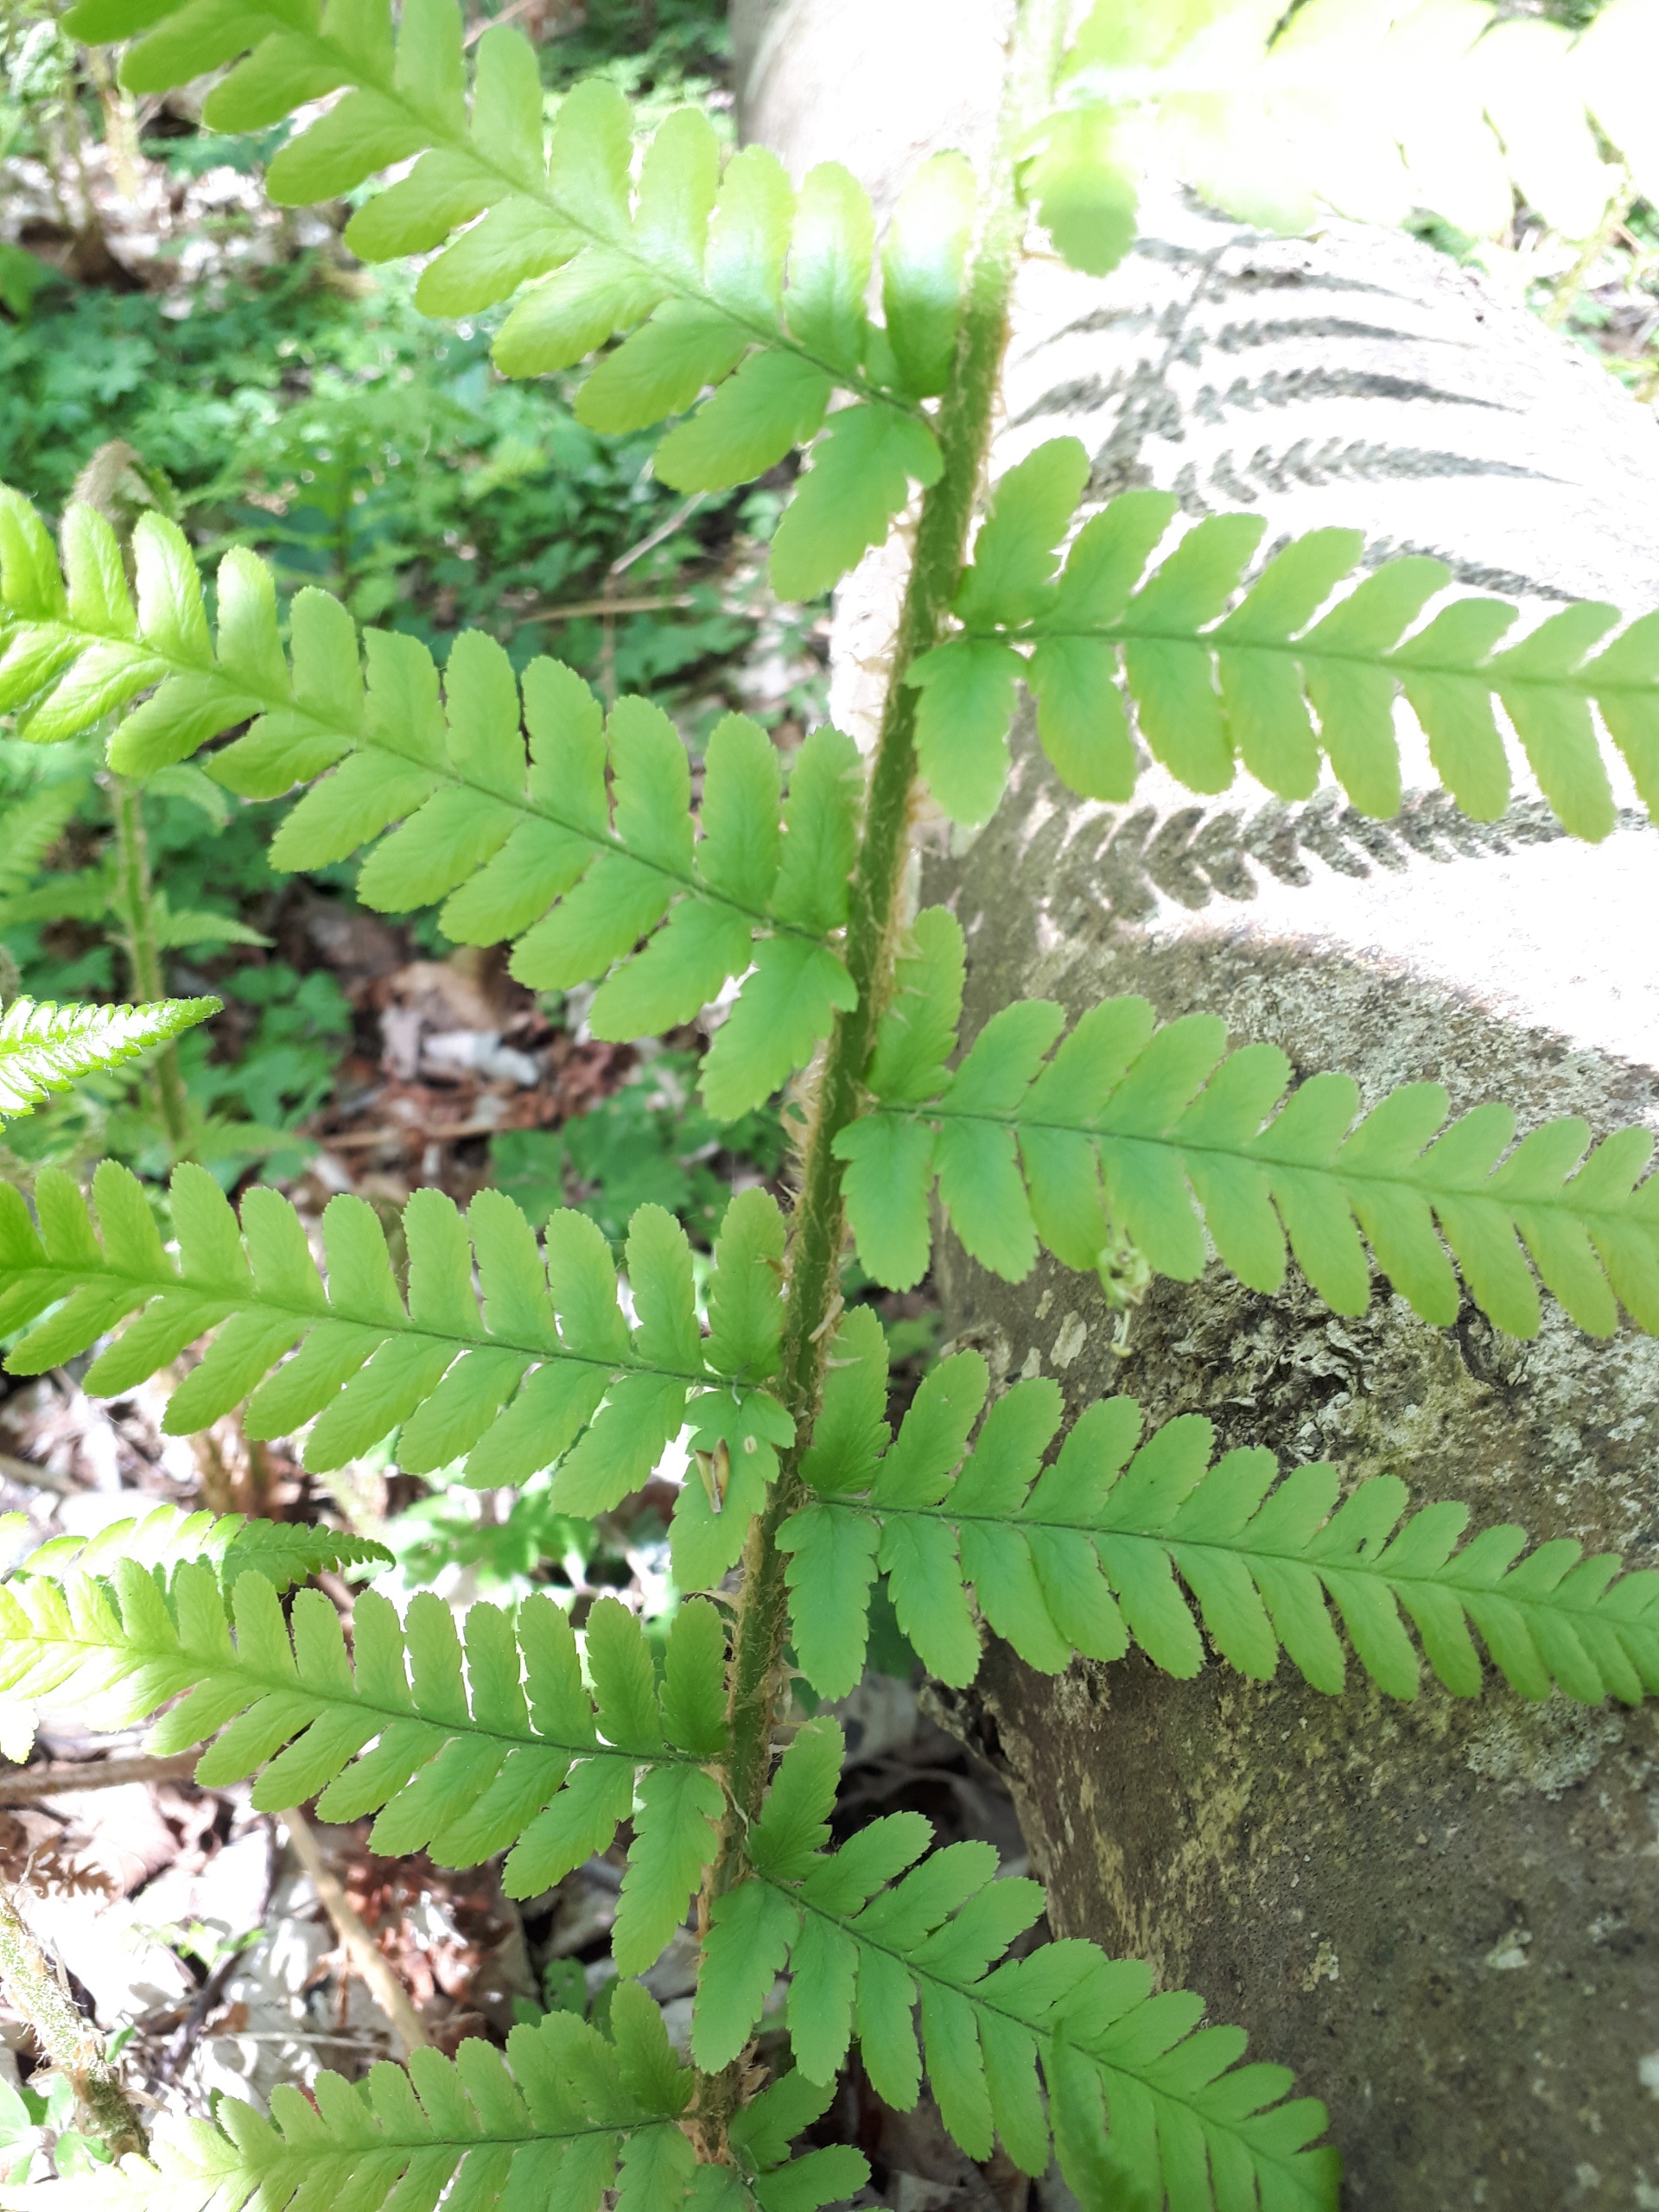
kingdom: Plantae
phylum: Tracheophyta
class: Polypodiopsida
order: Polypodiales
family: Dryopteridaceae
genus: Dryopteris
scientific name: Dryopteris filix-mas
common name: Almindelig mangeløv
